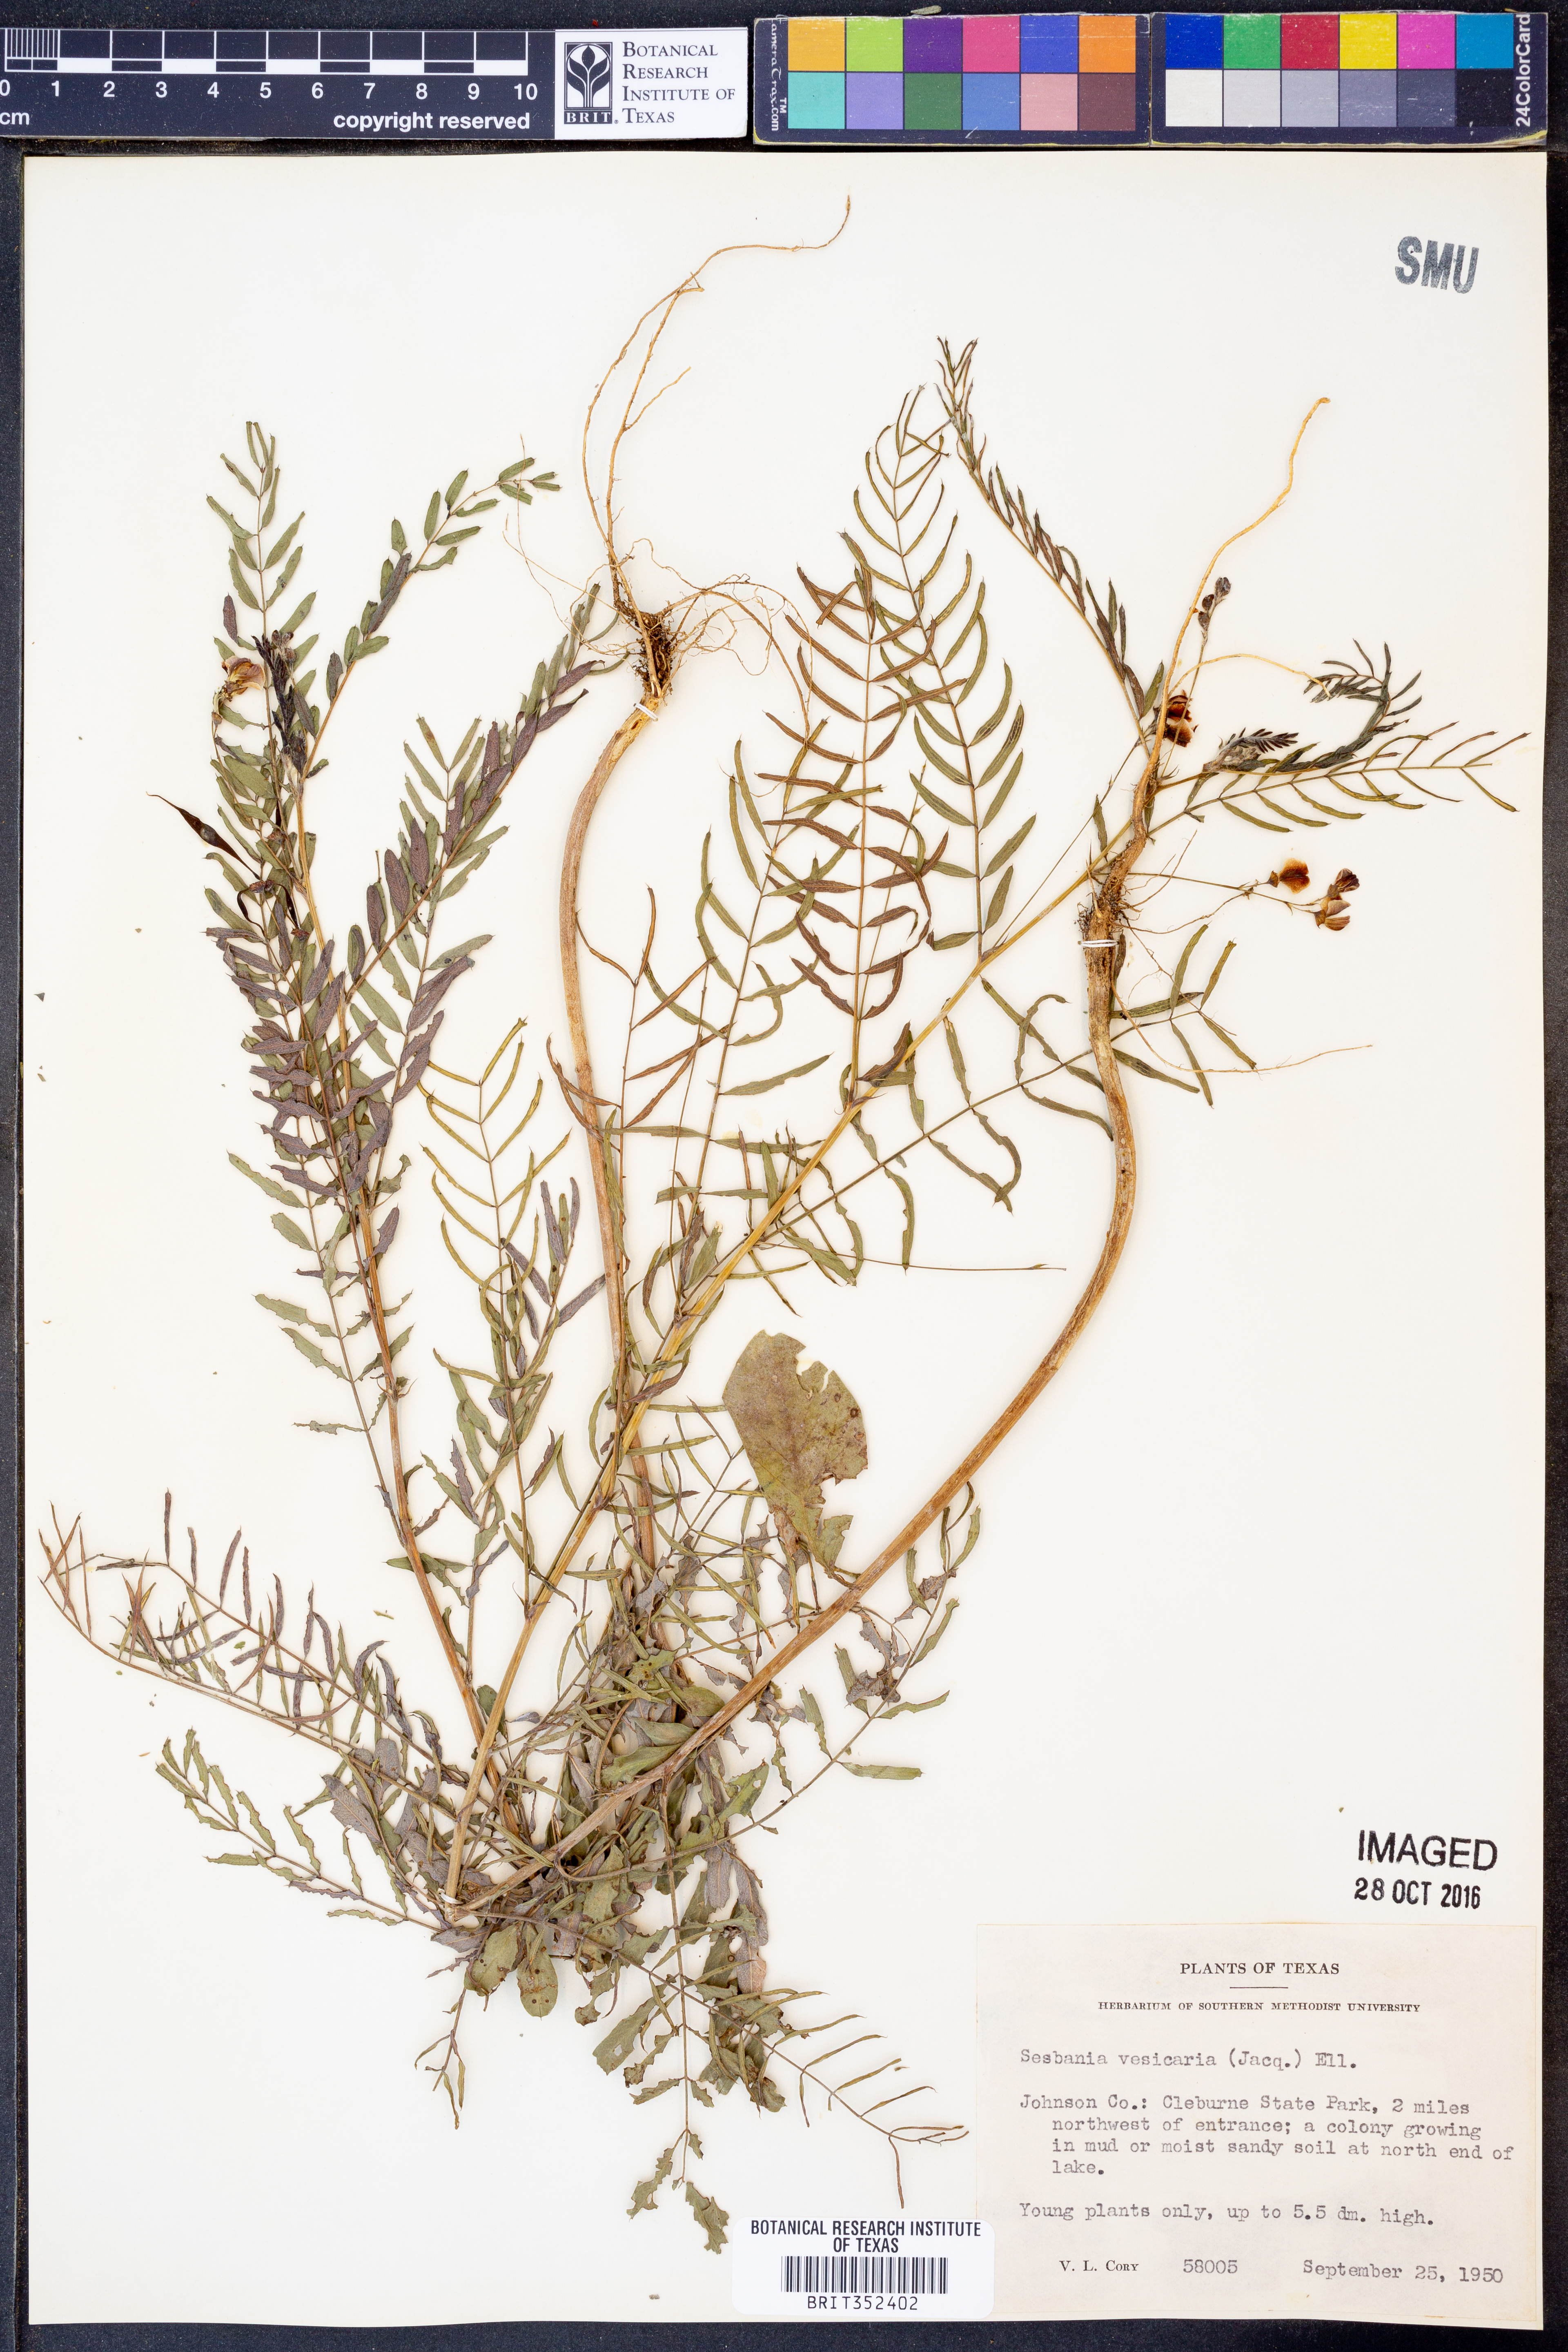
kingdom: Plantae
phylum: Tracheophyta
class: Magnoliopsida
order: Fabales
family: Fabaceae
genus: Sesbania
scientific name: Sesbania vesicaria
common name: Bagpod
